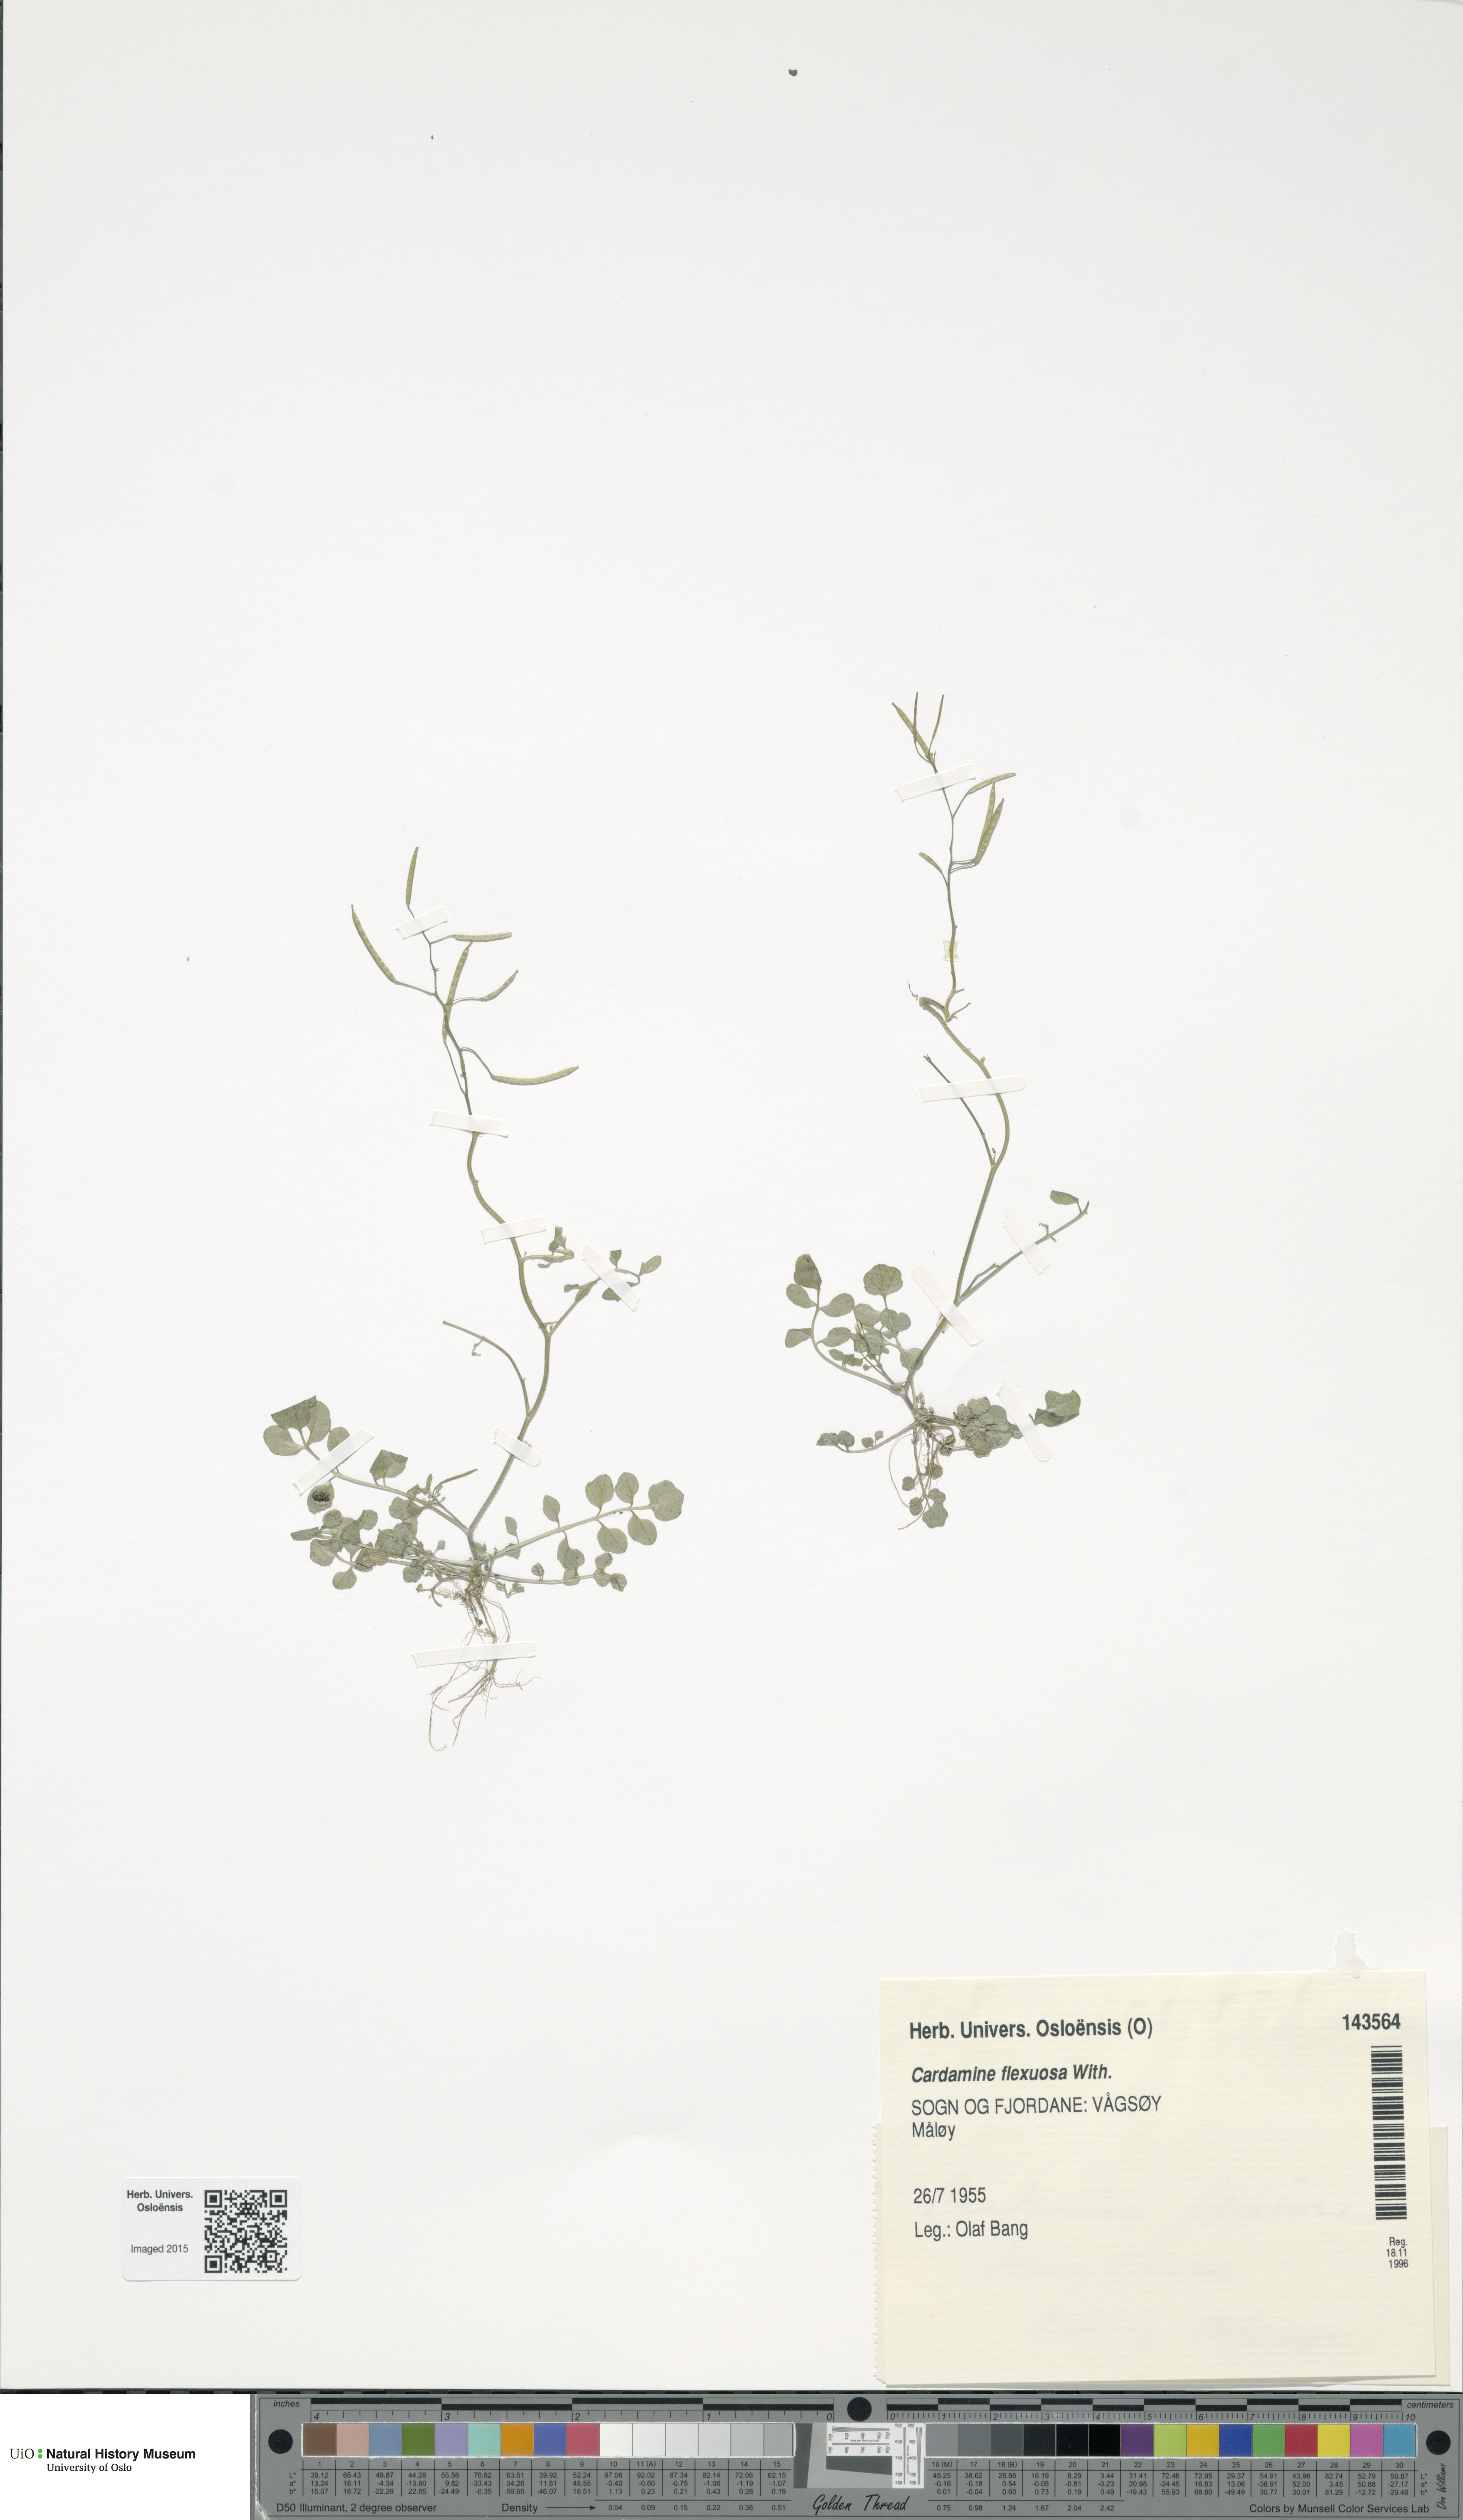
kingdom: Plantae
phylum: Tracheophyta
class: Magnoliopsida
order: Brassicales
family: Brassicaceae
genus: Cardamine
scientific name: Cardamine flexuosa
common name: Woodland bittercress
